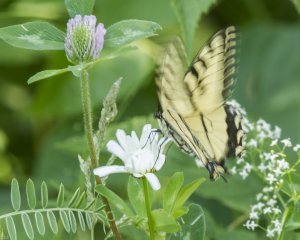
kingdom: Animalia
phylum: Arthropoda
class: Insecta
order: Lepidoptera
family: Papilionidae
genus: Pterourus
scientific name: Pterourus canadensis
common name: Canadian Tiger Swallowtail
